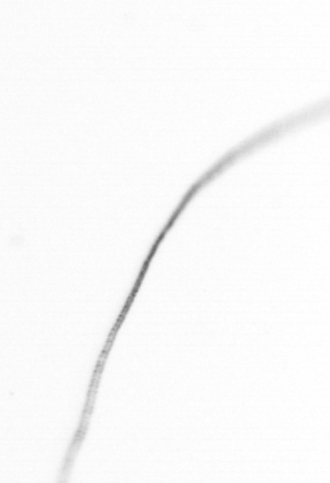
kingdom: Chromista
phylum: Ochrophyta
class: Bacillariophyceae
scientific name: Bacillariophyceae
